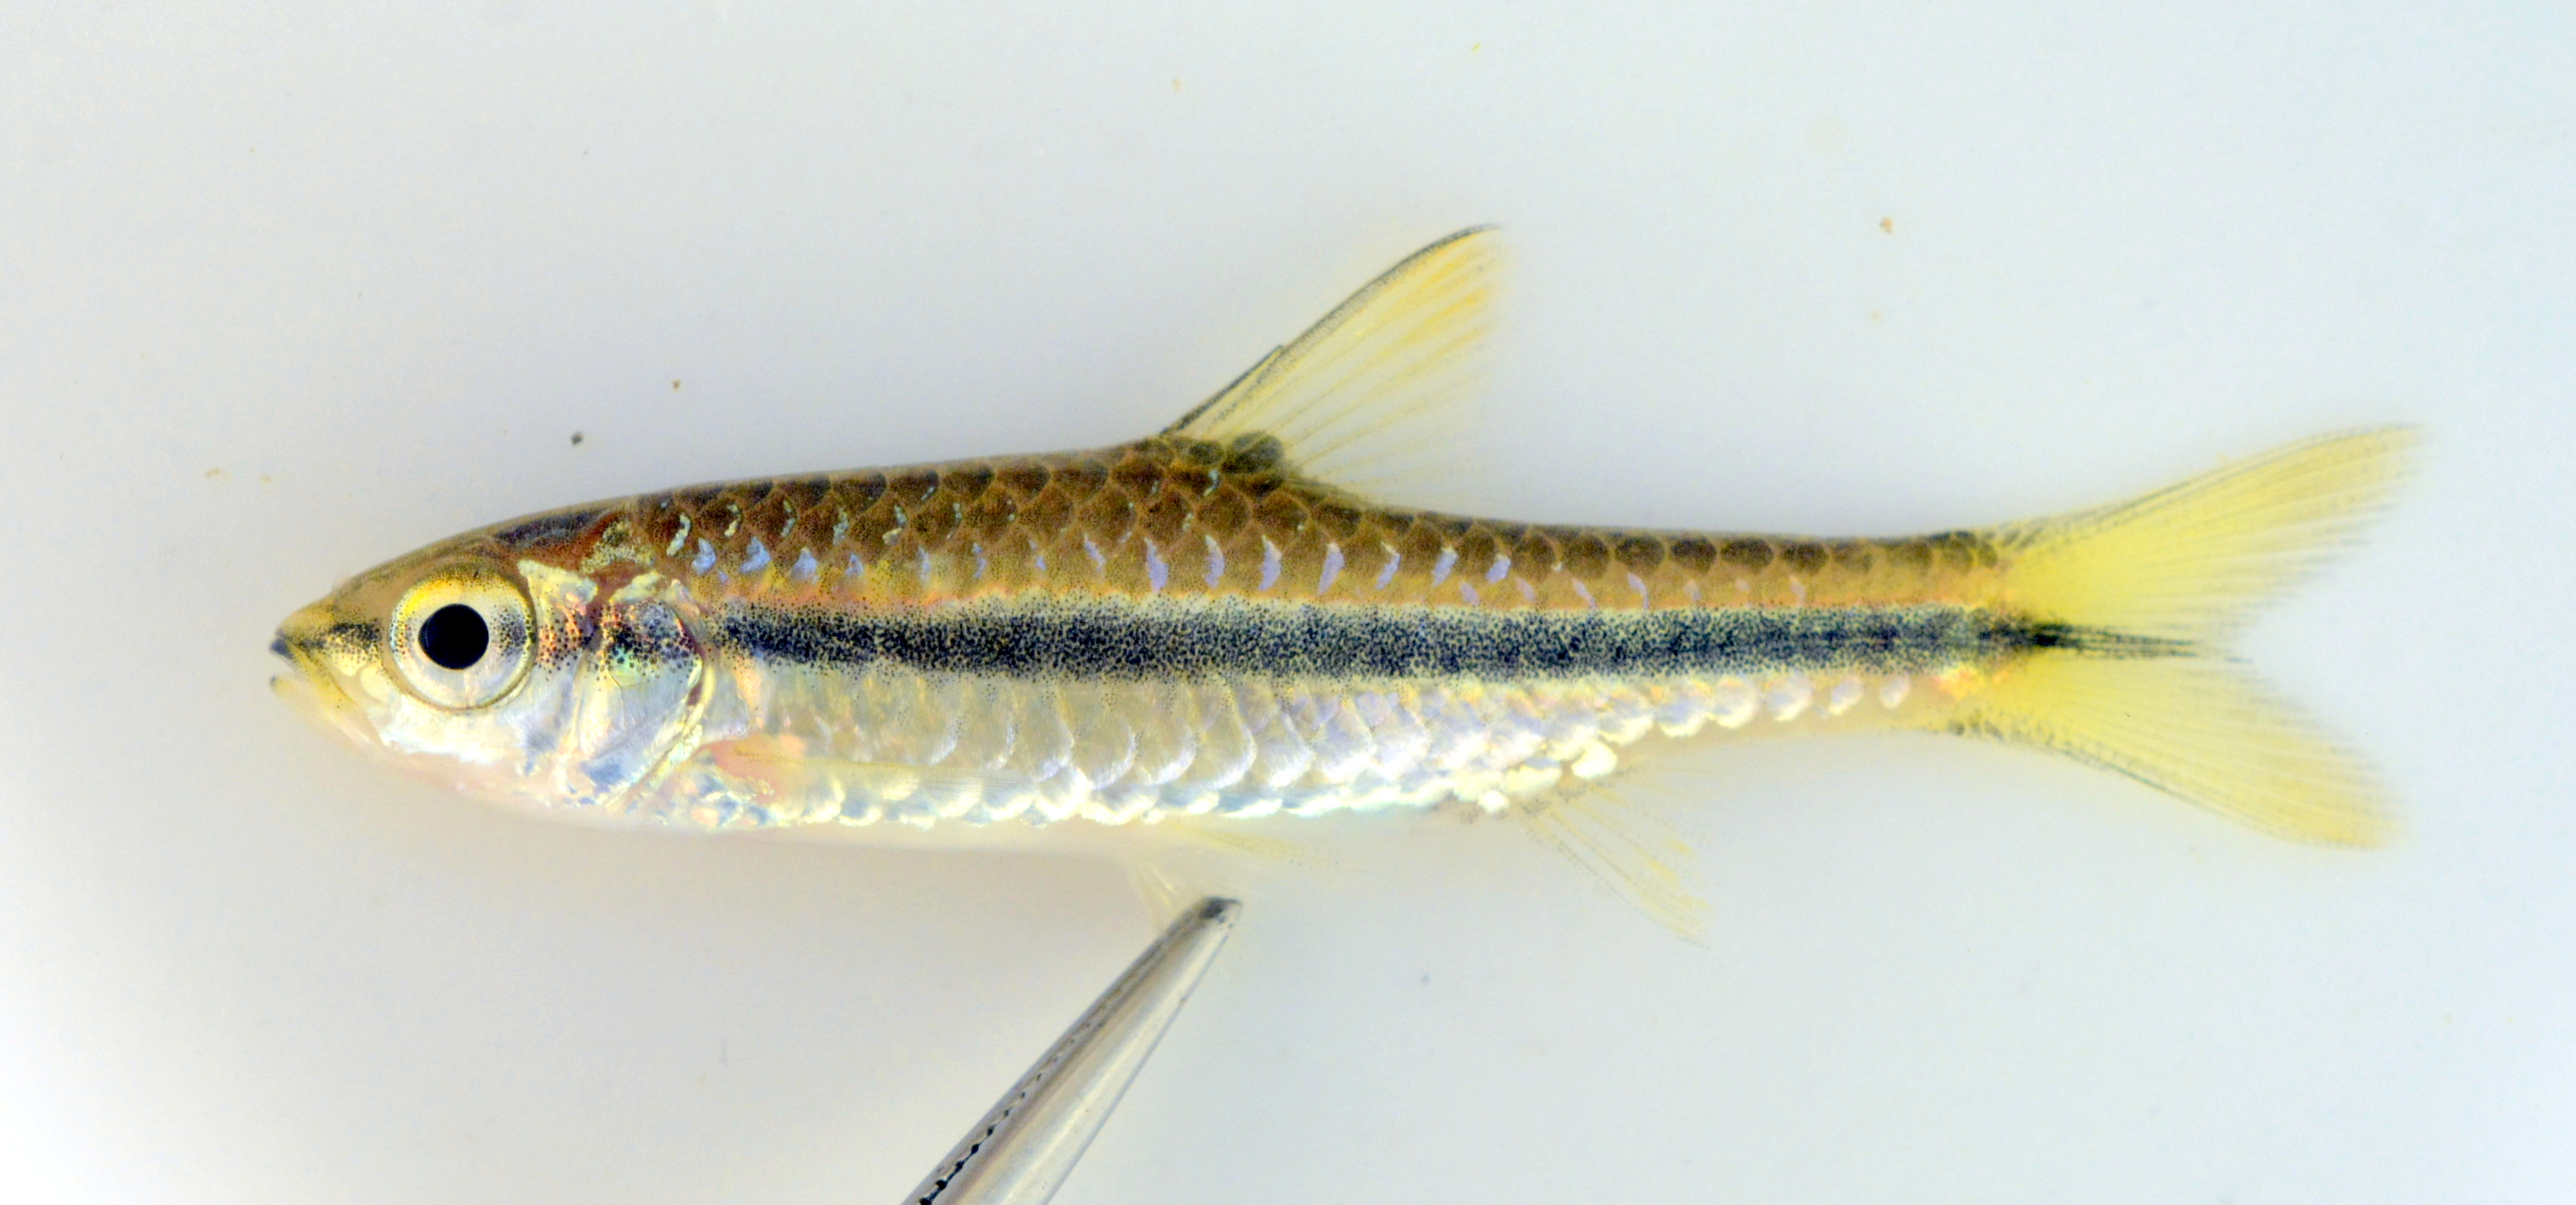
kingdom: Animalia
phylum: Chordata
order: Cypriniformes
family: Cyprinidae
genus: Enteromius
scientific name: Enteromius eutaenia
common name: Orangefin barb
